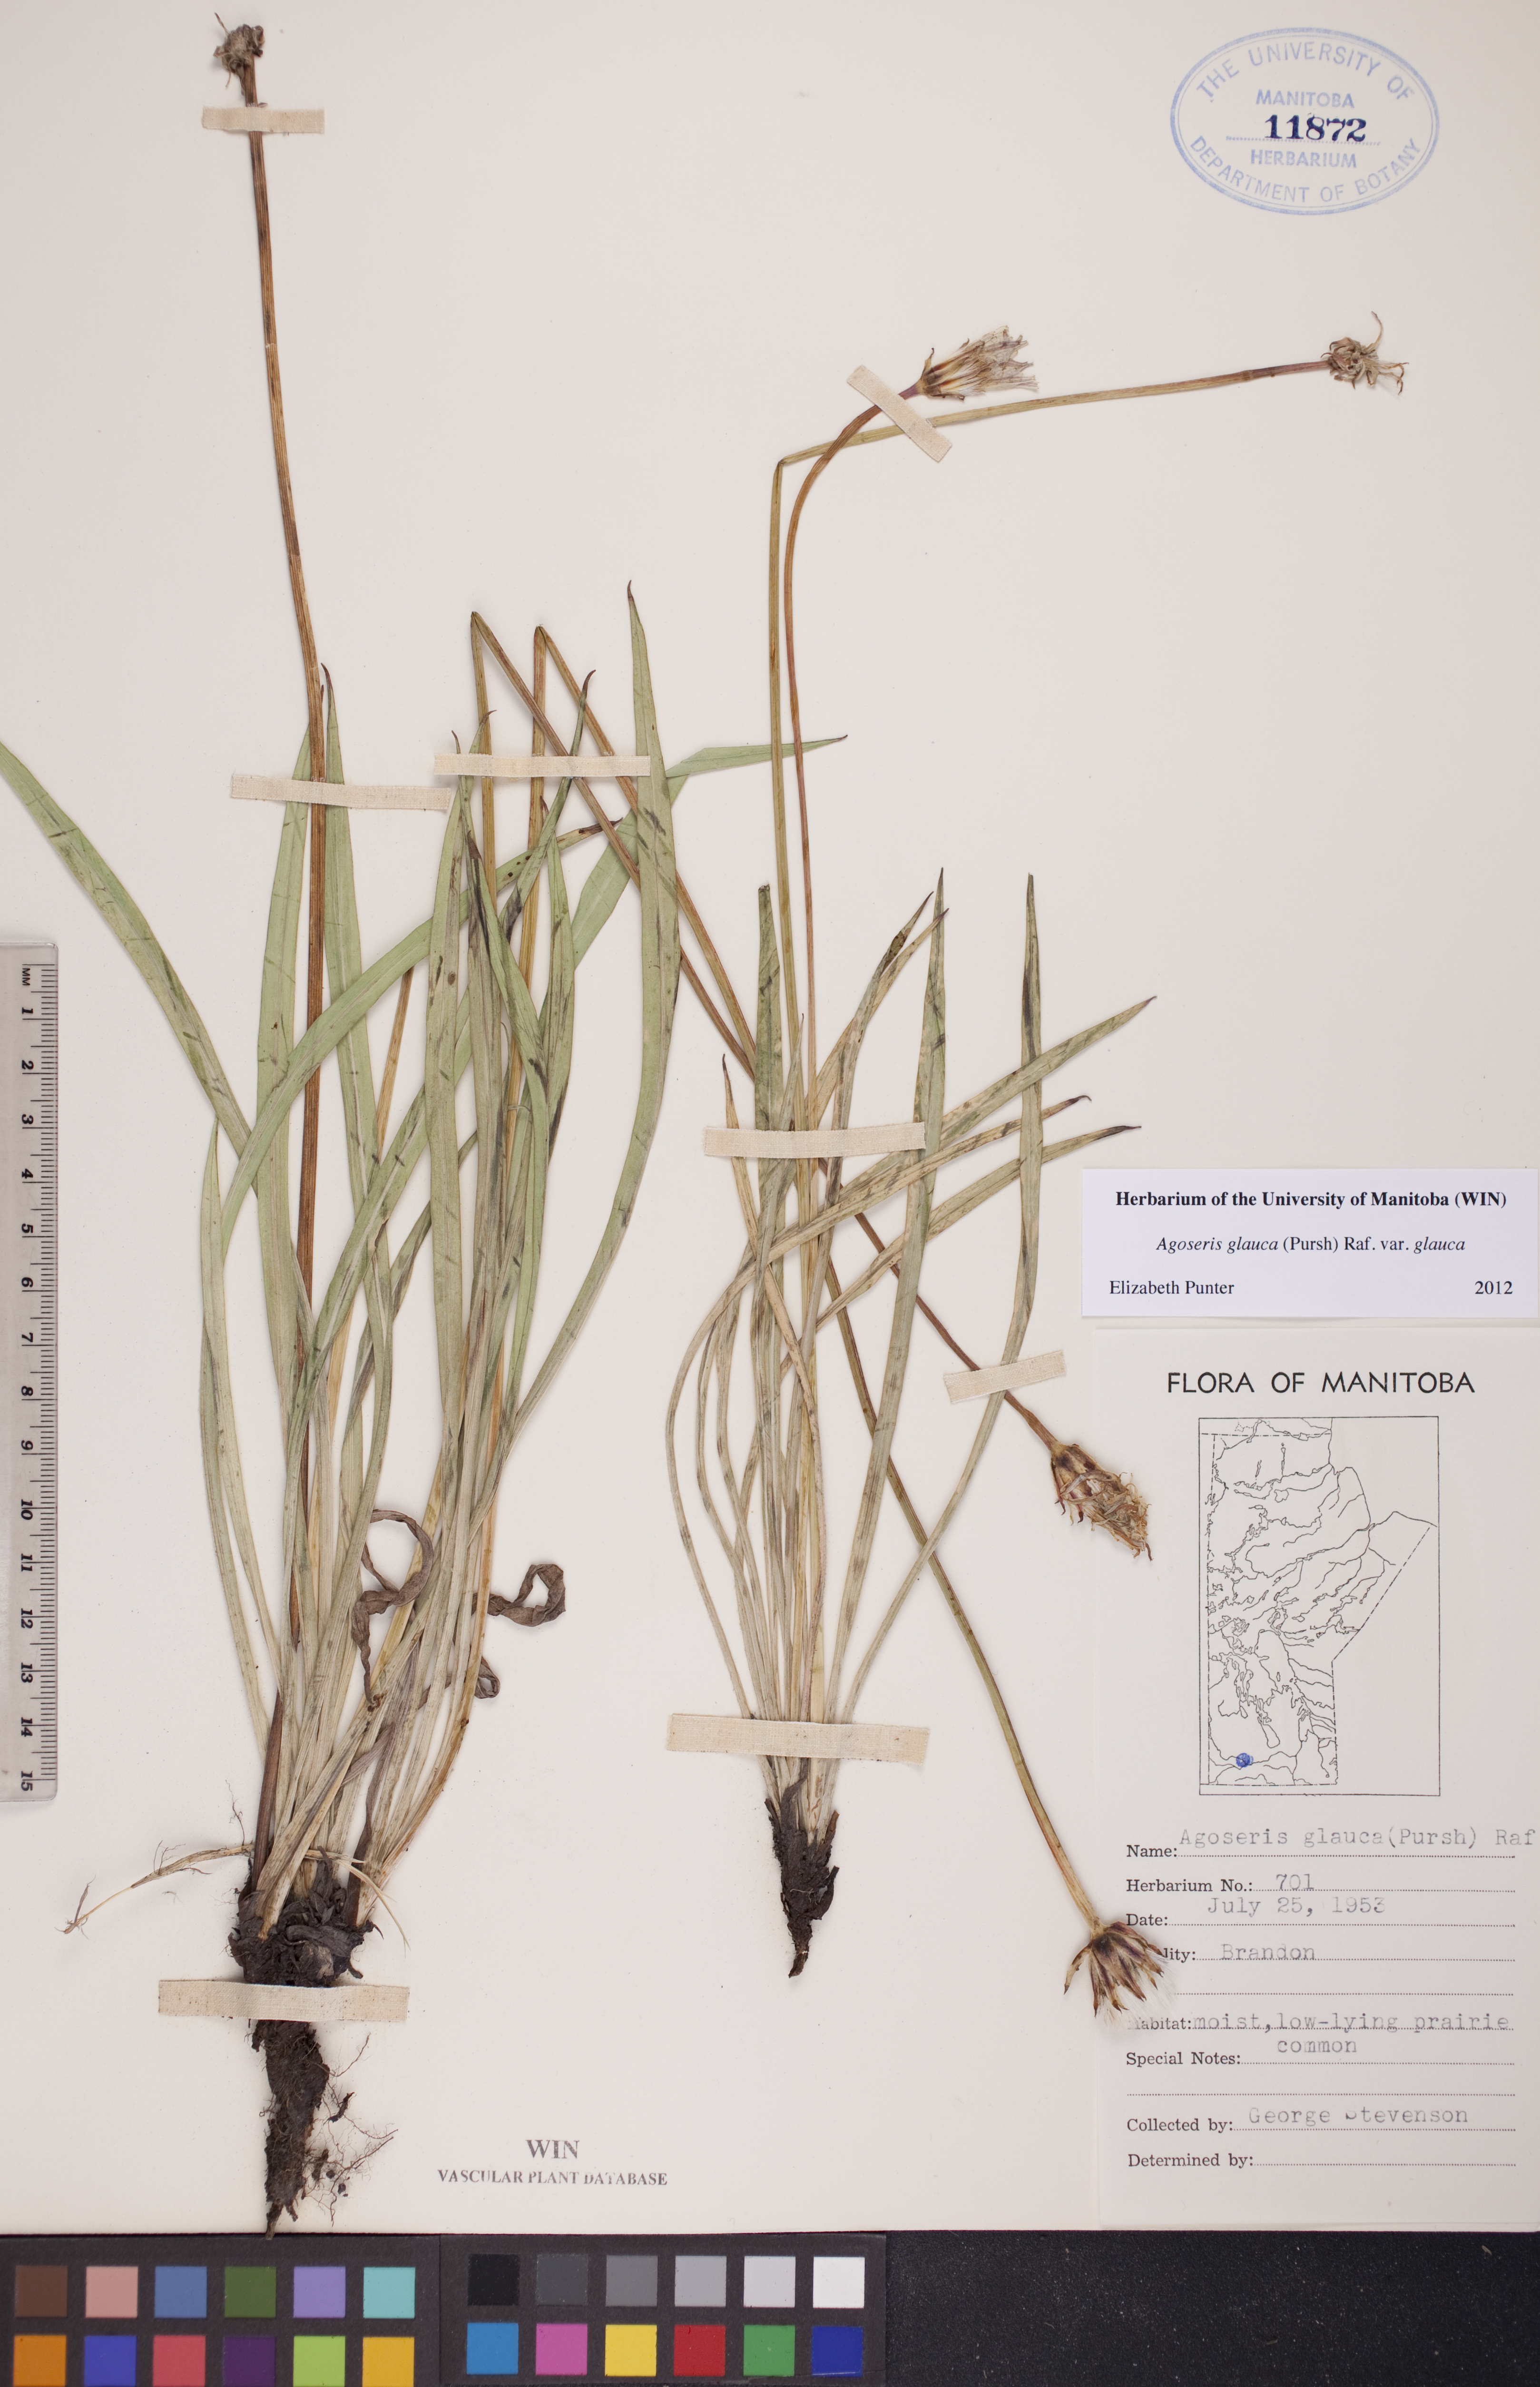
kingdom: Plantae
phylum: Tracheophyta
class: Magnoliopsida
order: Asterales
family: Asteraceae
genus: Agoseris
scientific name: Agoseris glauca
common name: Prairie agoseris
